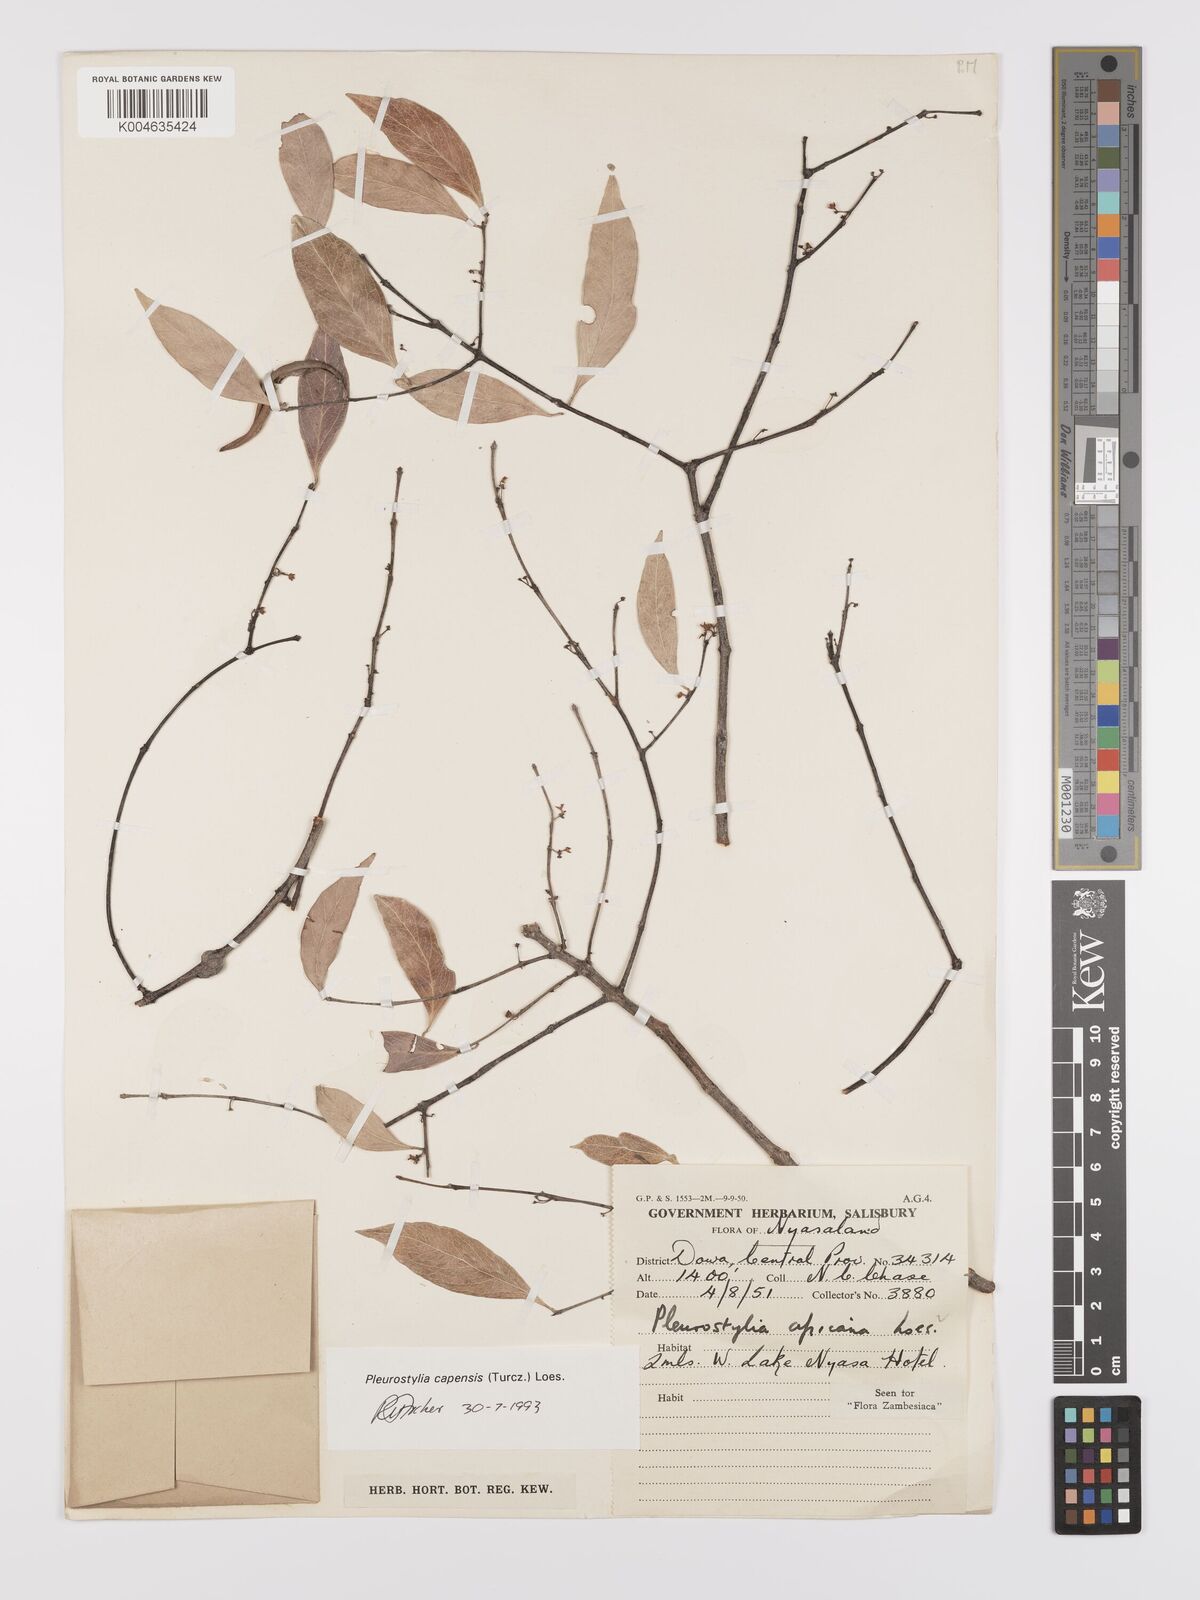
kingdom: Plantae
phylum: Tracheophyta
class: Magnoliopsida
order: Celastrales
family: Celastraceae
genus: Pleurostylia
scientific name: Pleurostylia africana
